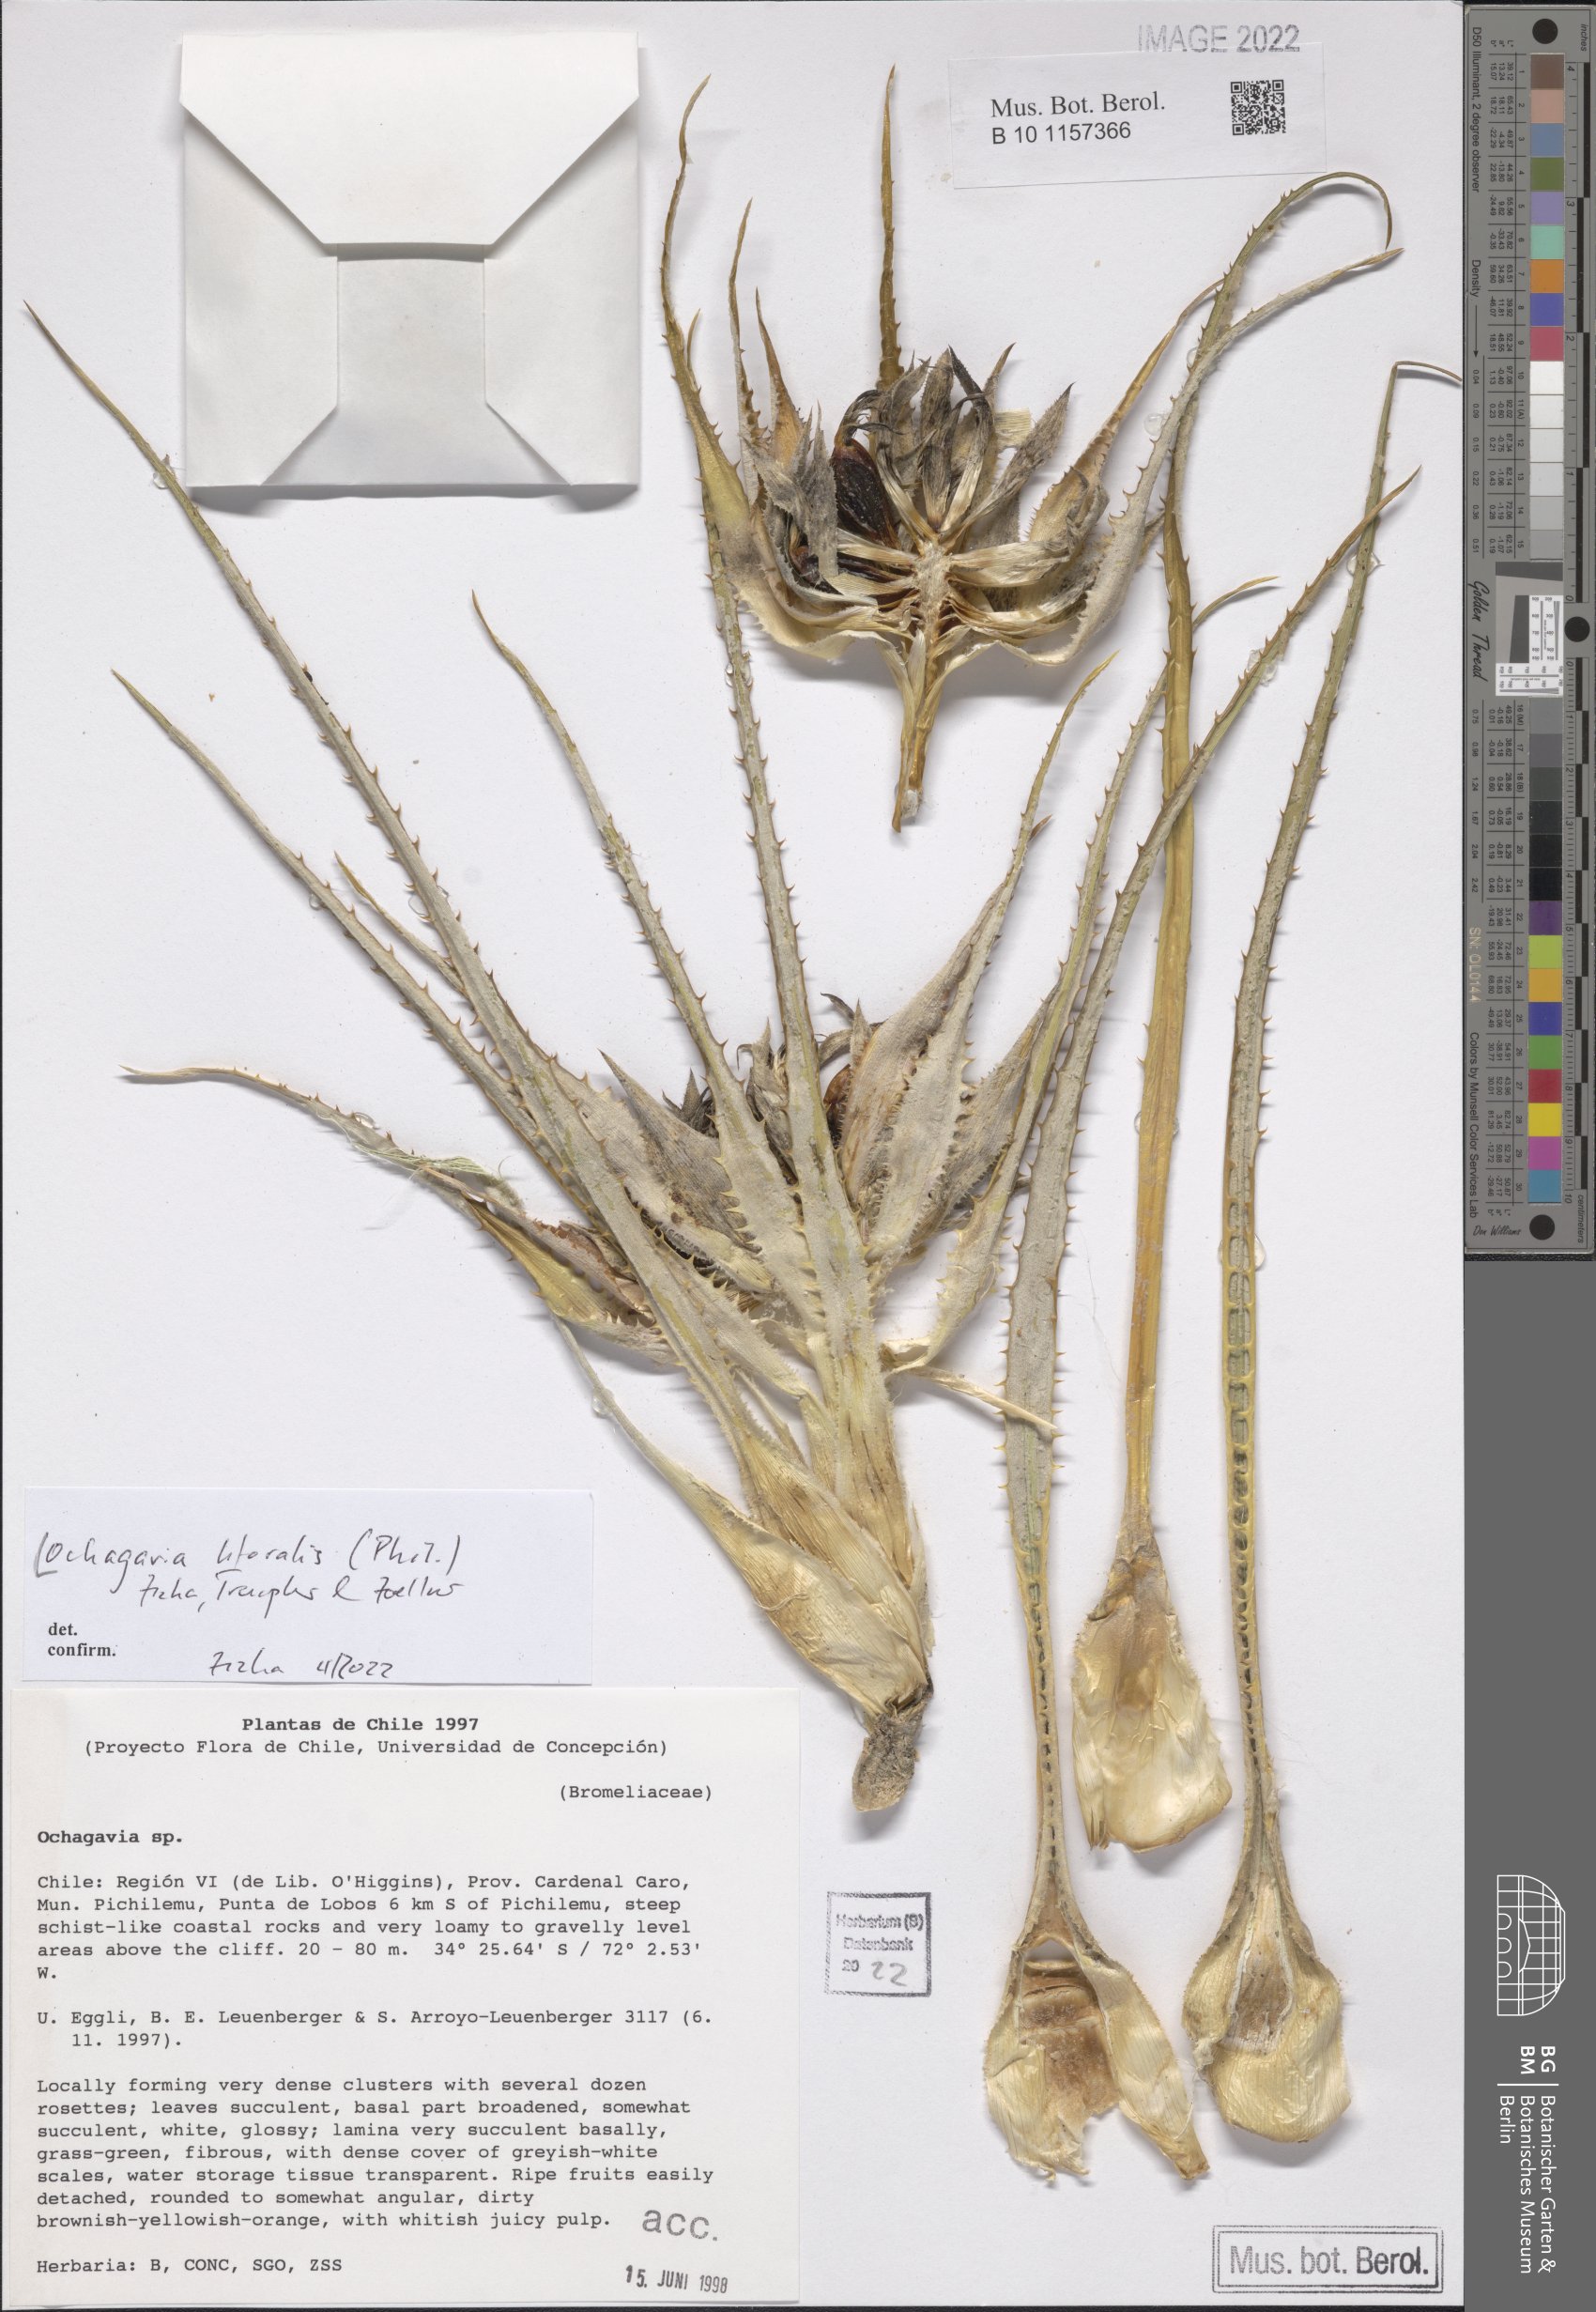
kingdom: Plantae
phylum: Tracheophyta
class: Liliopsida
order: Poales
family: Bromeliaceae
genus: Ochagavia
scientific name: Ochagavia litoralis
